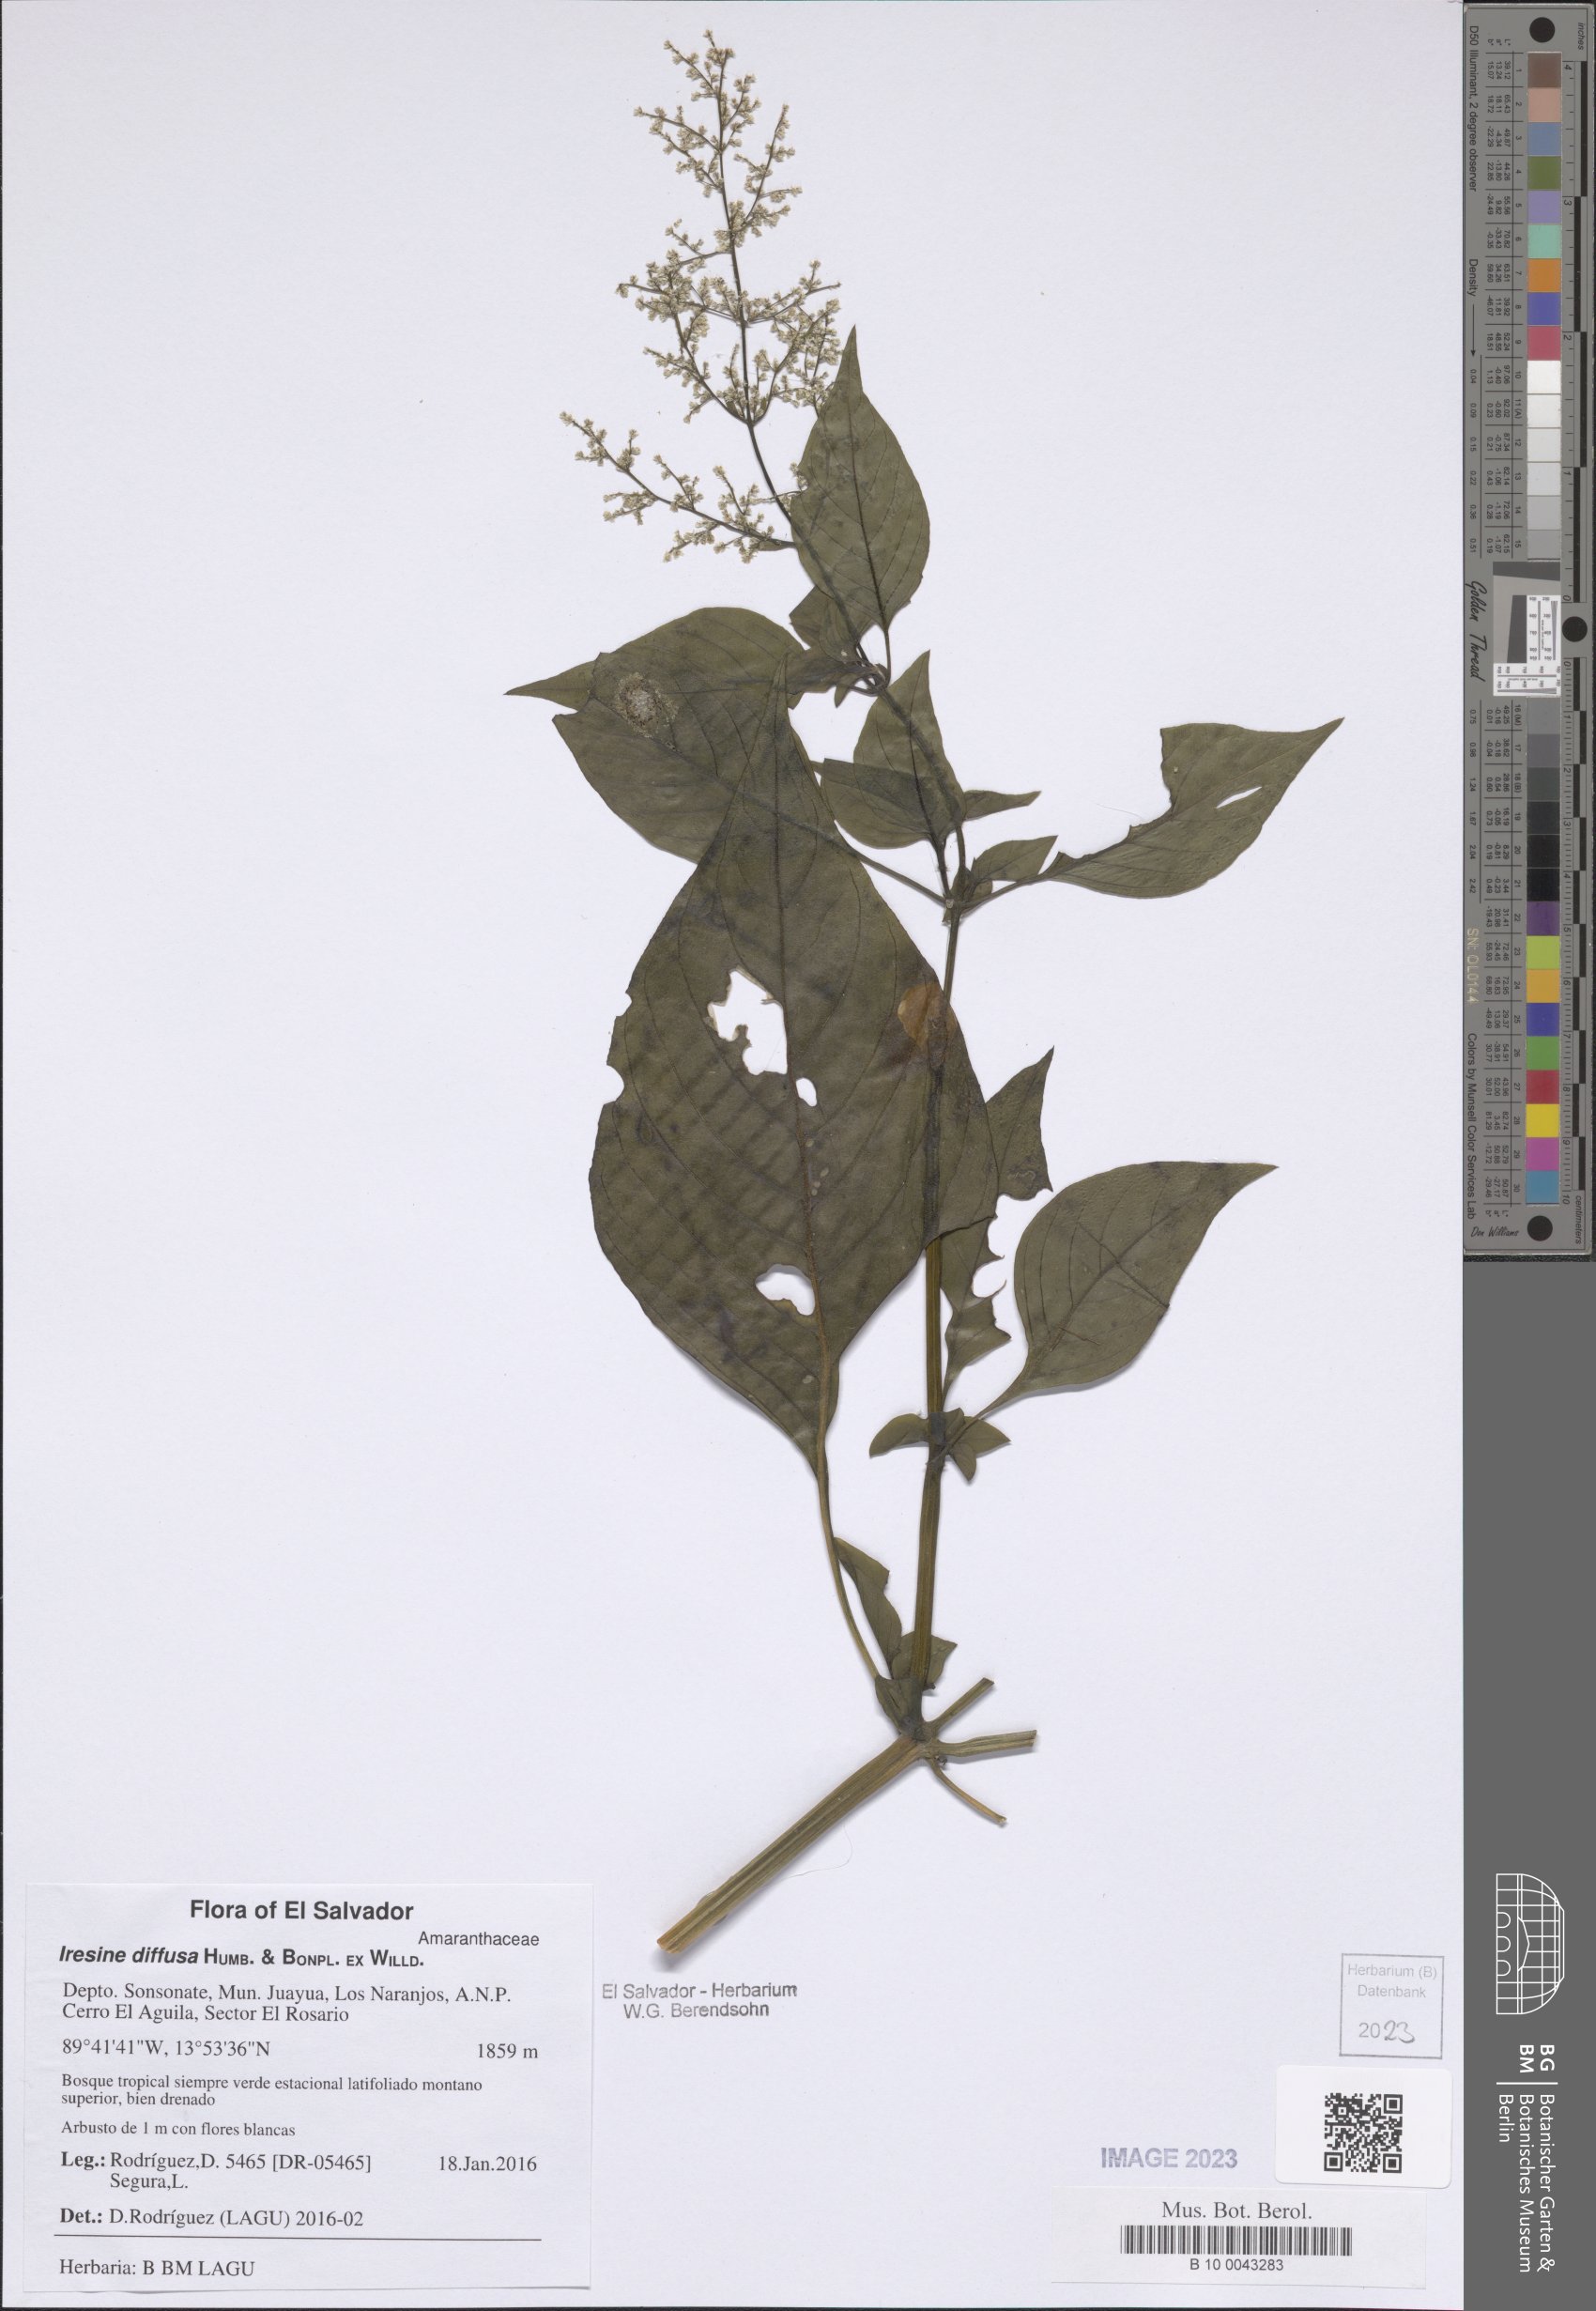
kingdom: Plantae
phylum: Tracheophyta
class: Magnoliopsida
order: Caryophyllales
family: Amaranthaceae
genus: Iresine
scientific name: Iresine diffusa
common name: Juba's-bush
